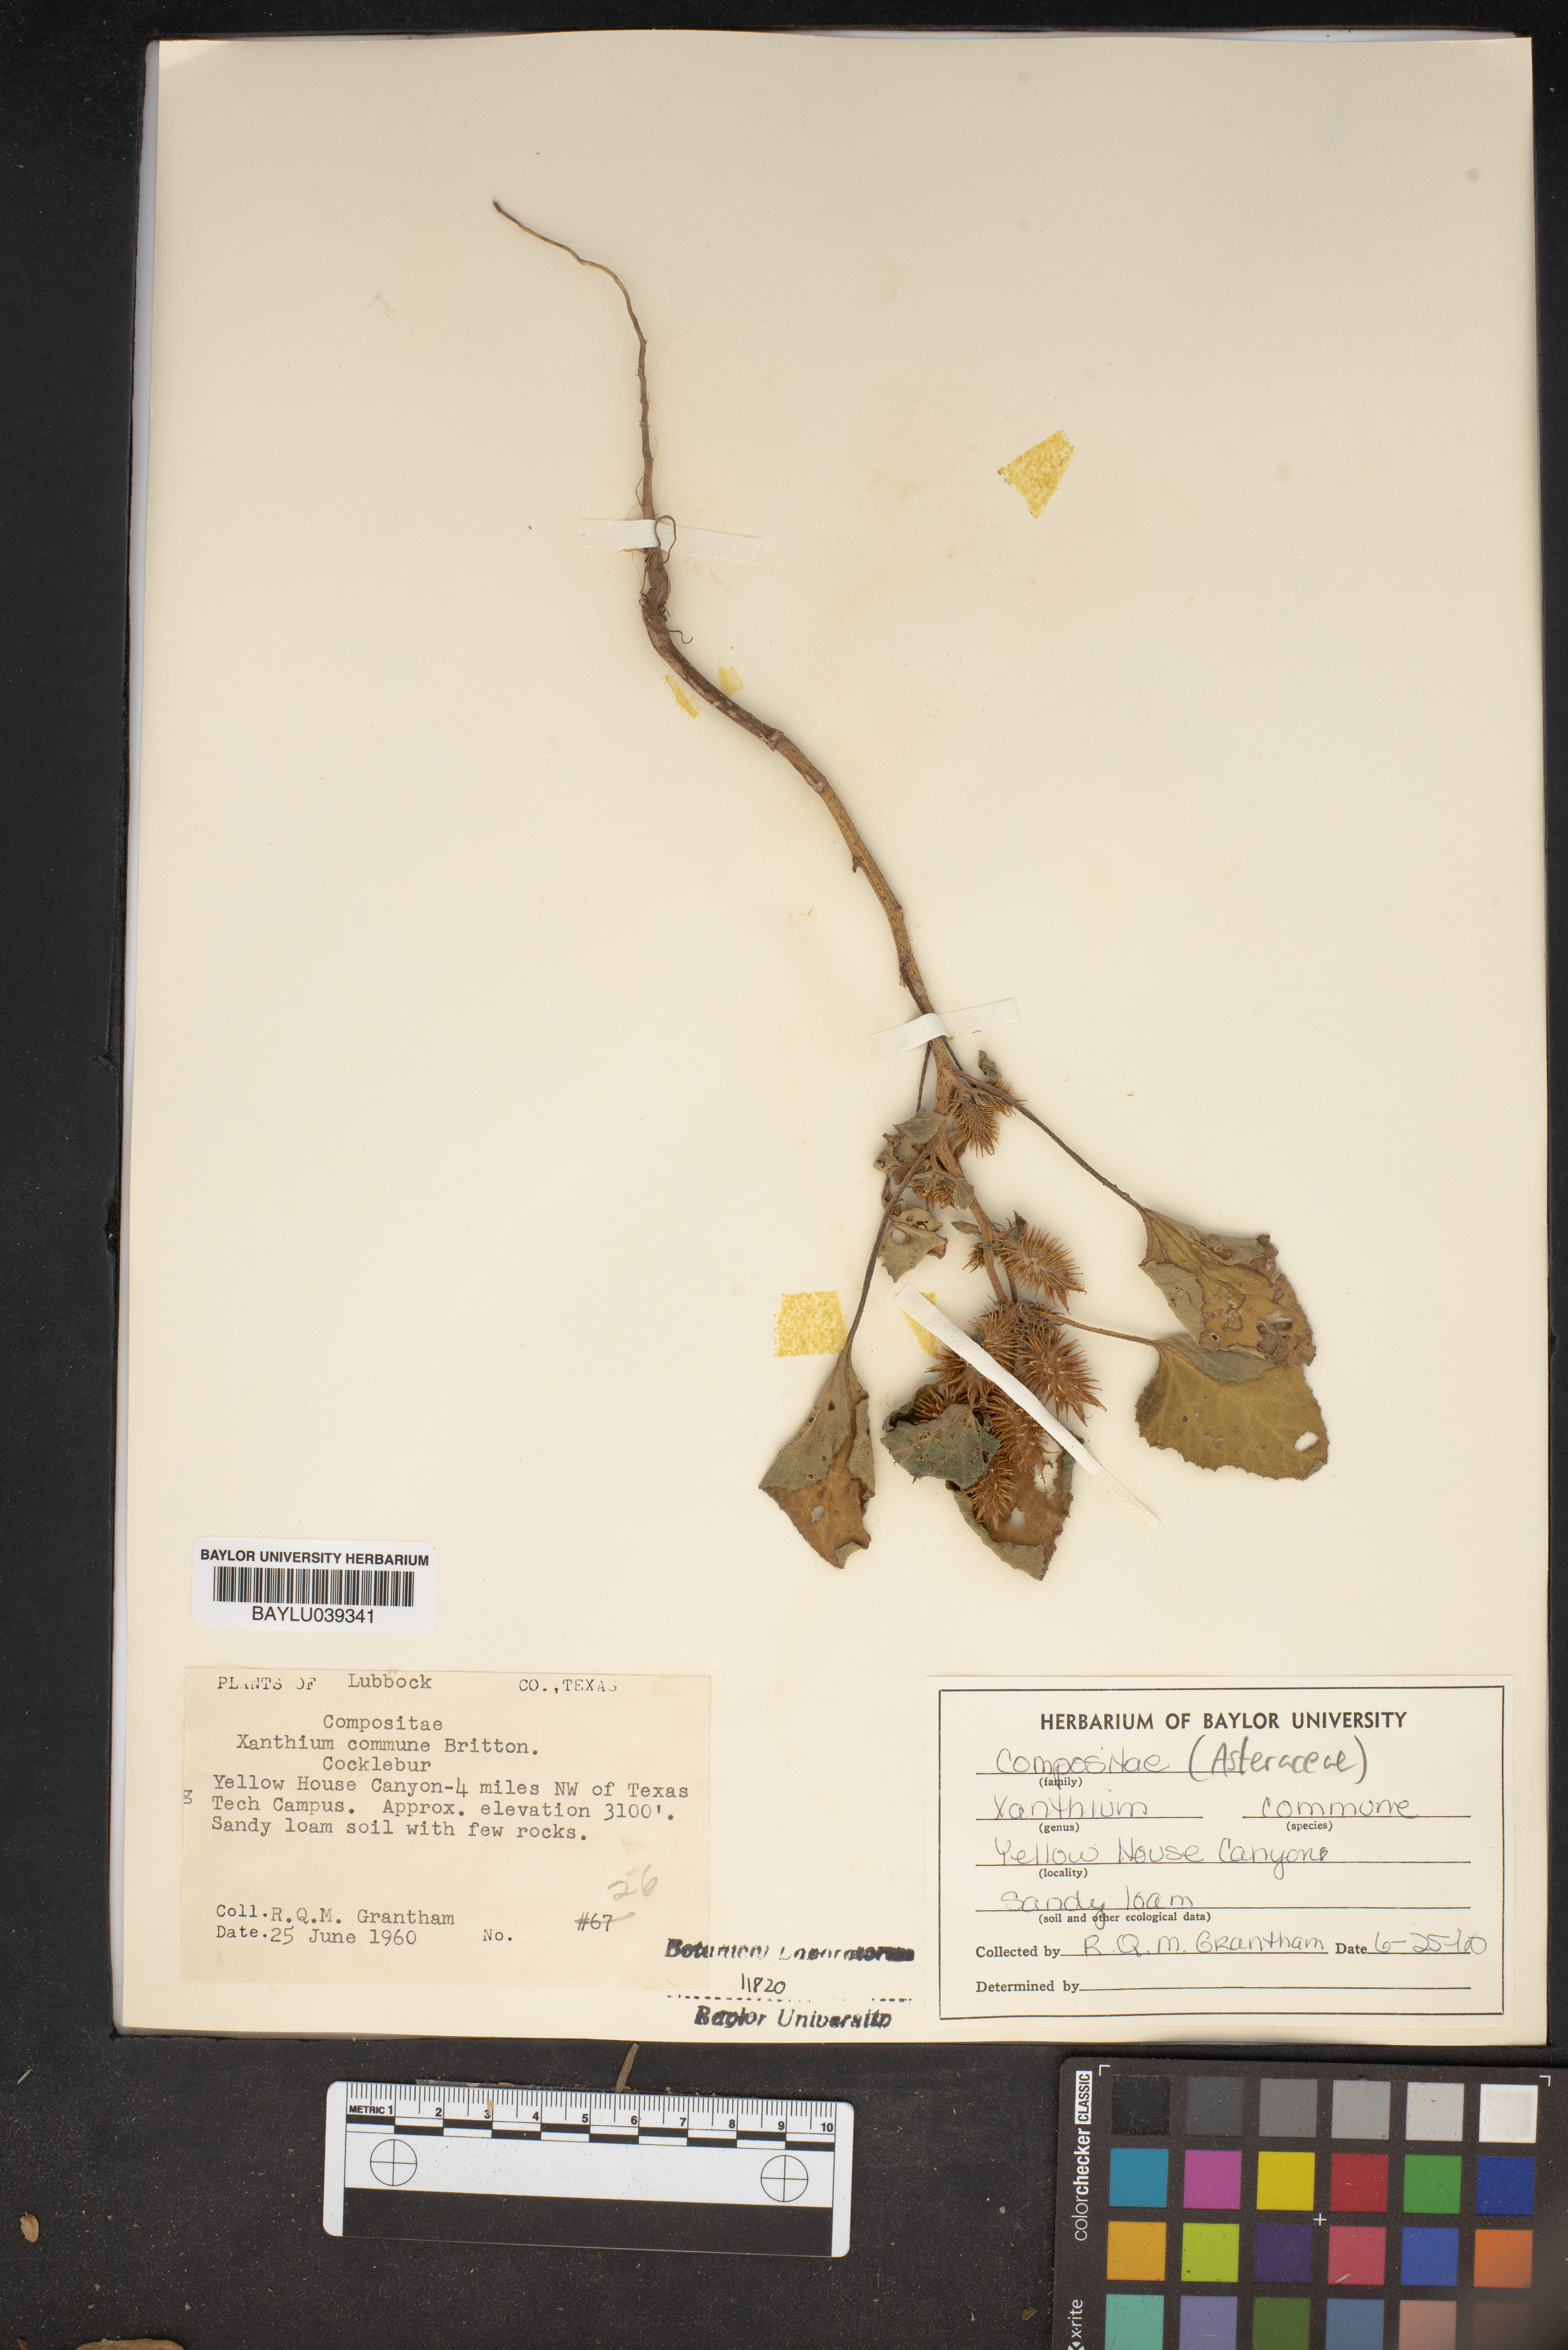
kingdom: Plantae
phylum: Tracheophyta
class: Magnoliopsida
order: Asterales
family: Asteraceae
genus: Xanthium
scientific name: Xanthium orientale
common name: Californian burr
